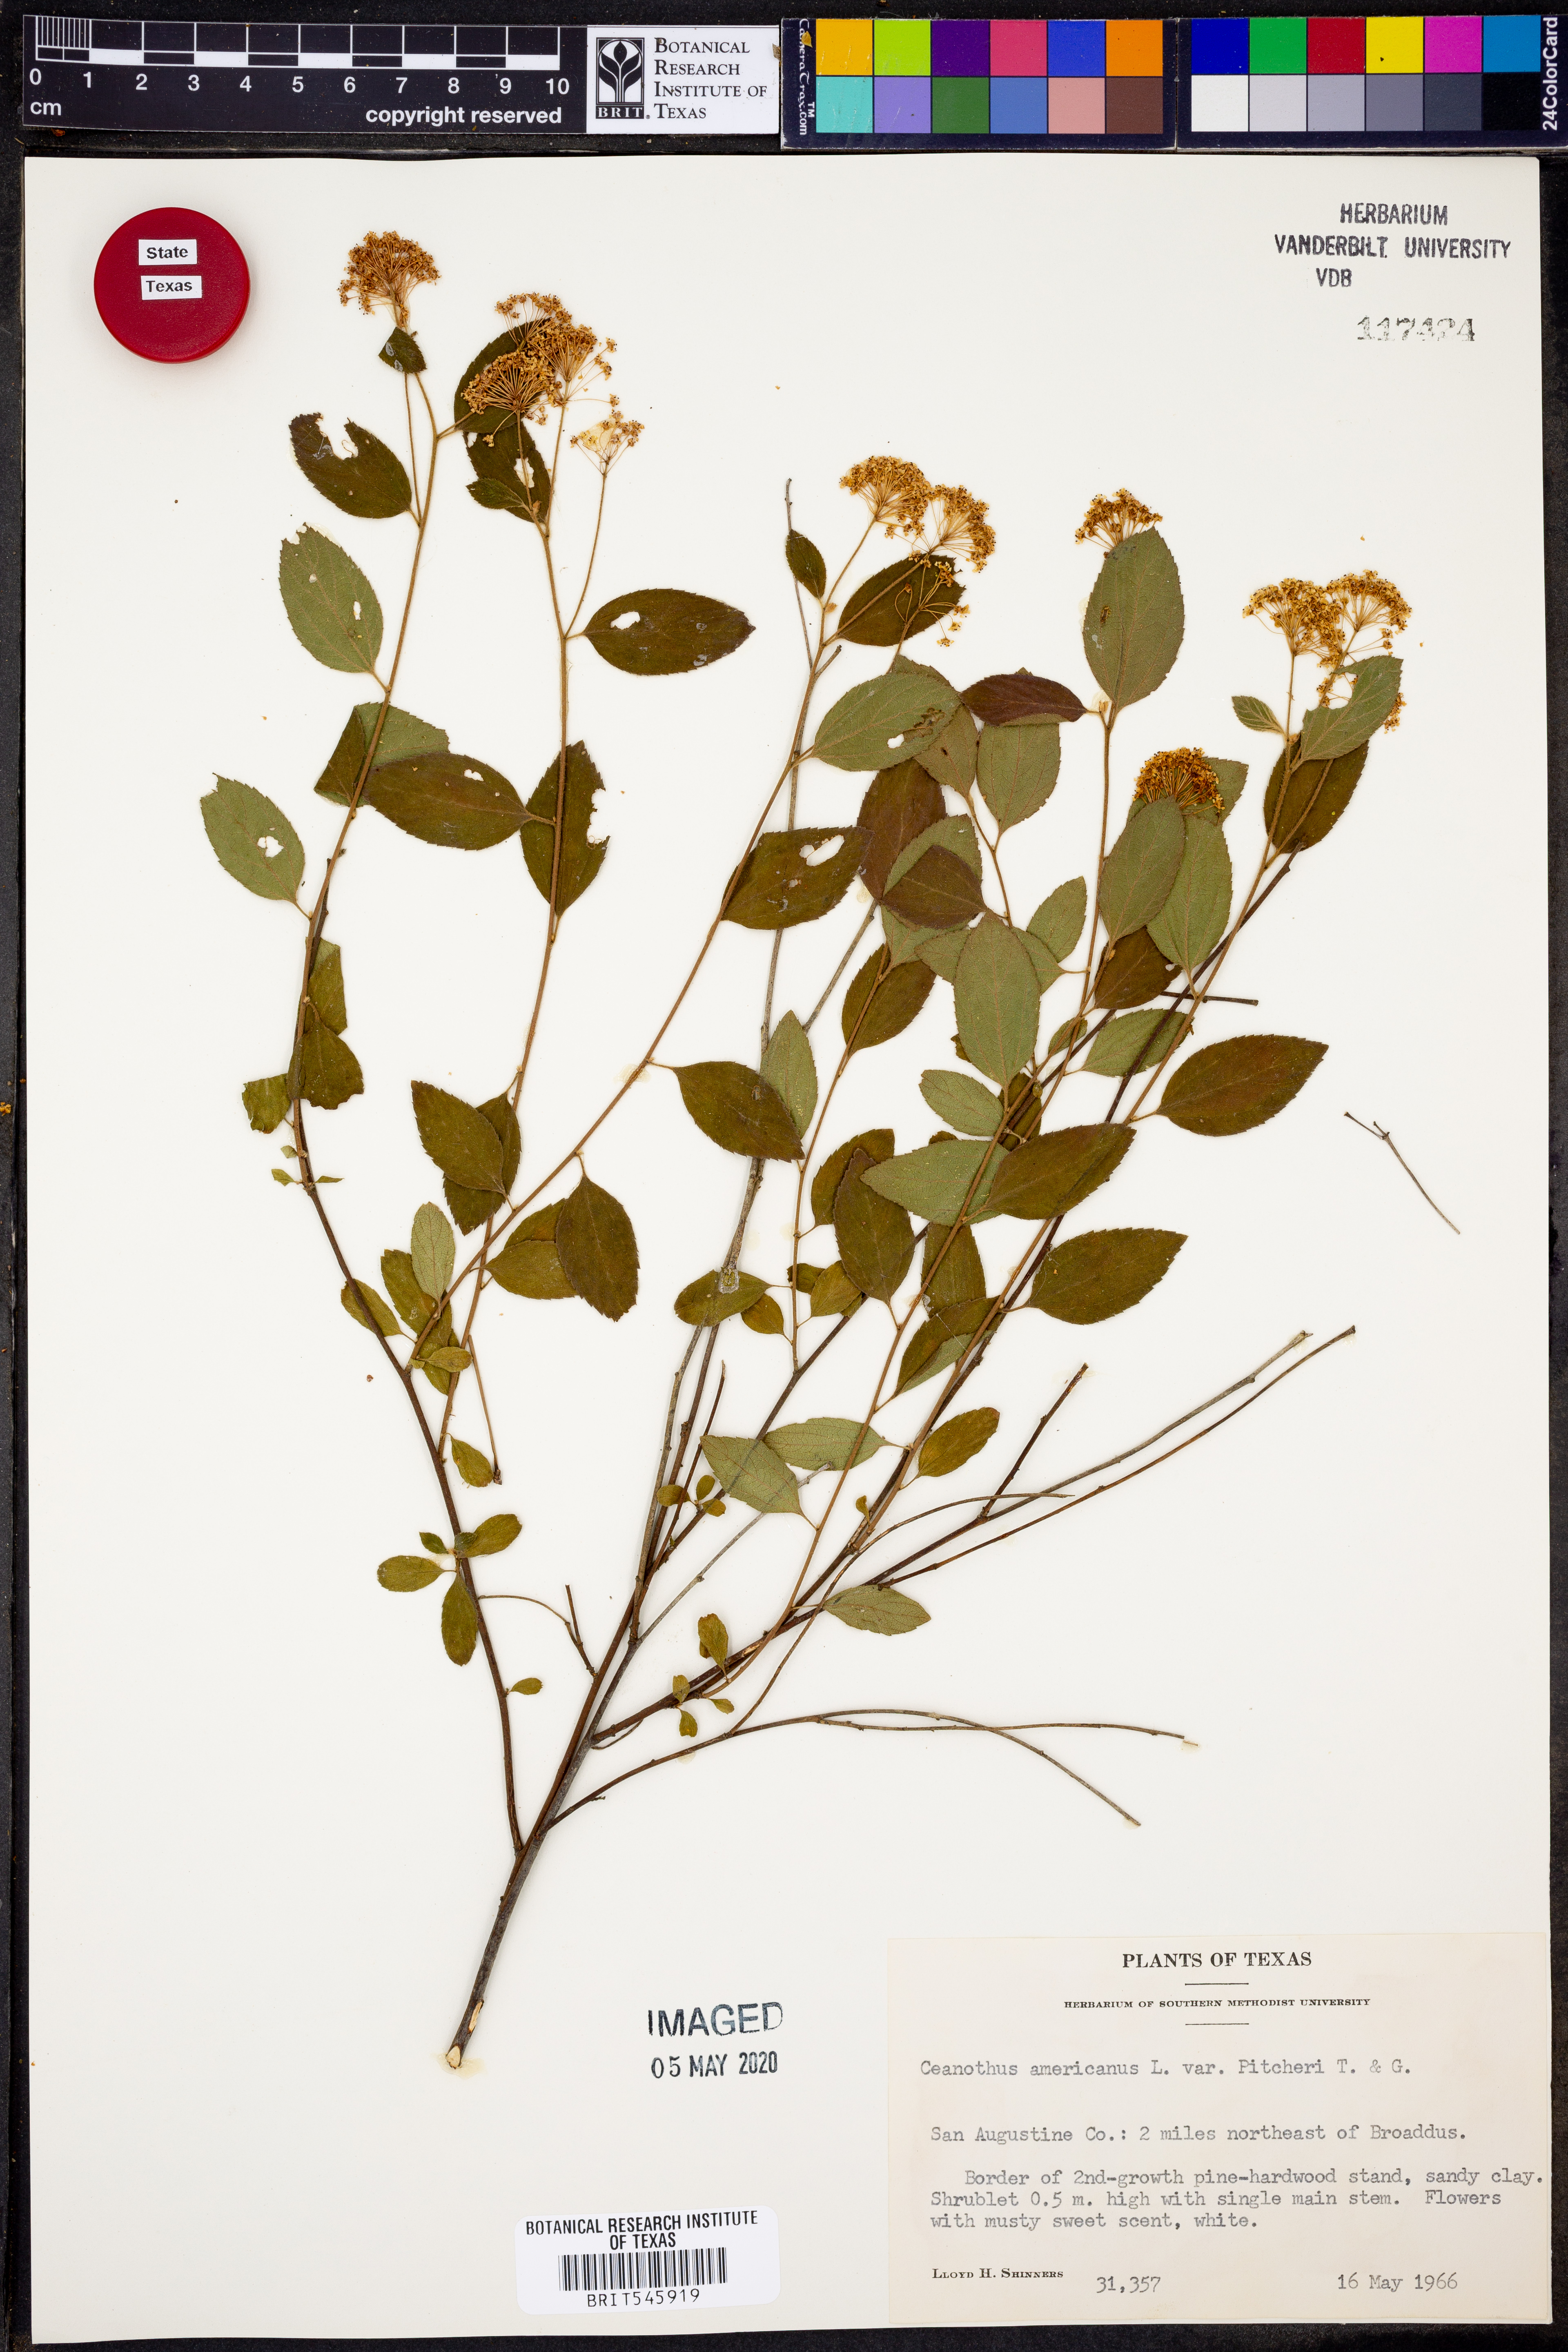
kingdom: Plantae
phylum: Tracheophyta
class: Magnoliopsida
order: Rosales
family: Rhamnaceae
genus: Ceanothus
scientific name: Ceanothus americanus
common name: Redroot
